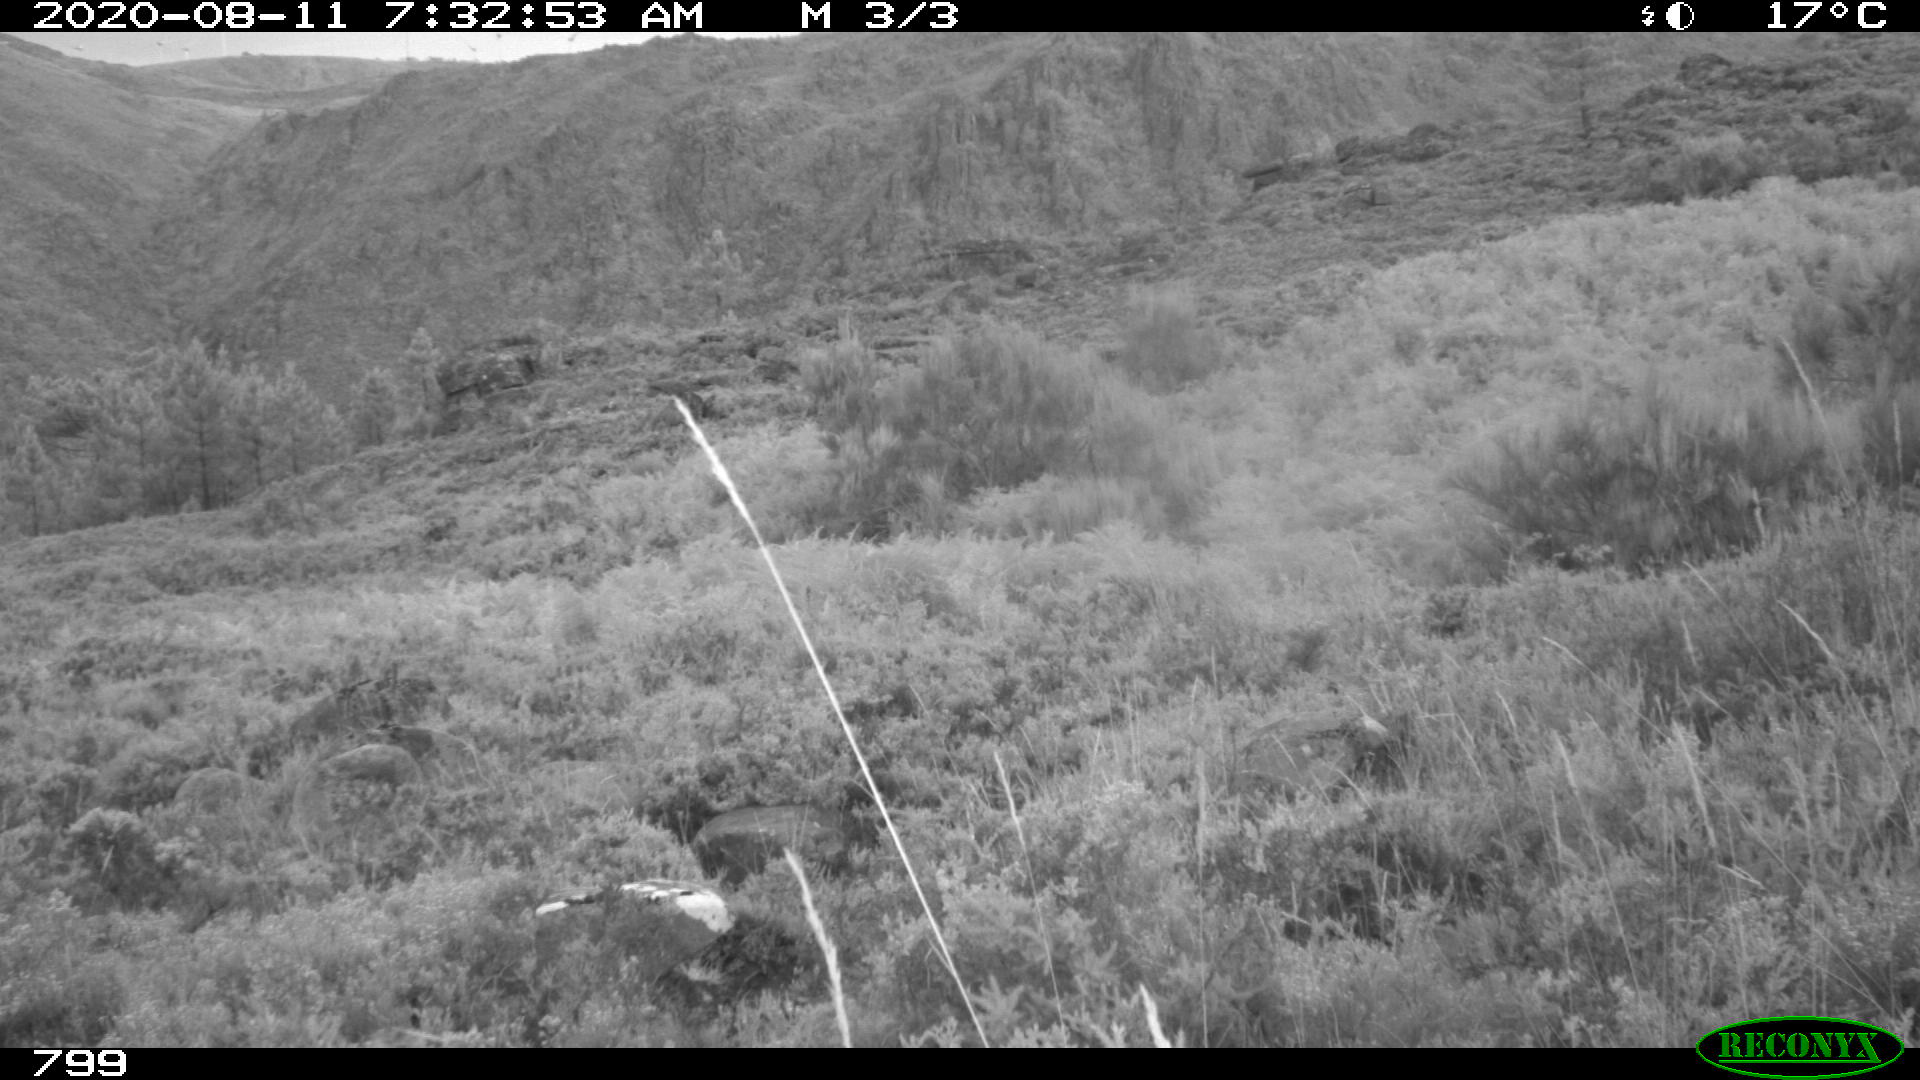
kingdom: Animalia
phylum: Chordata
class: Mammalia
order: Artiodactyla
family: Bovidae
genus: Bos
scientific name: Bos taurus
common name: Domesticated cattle
